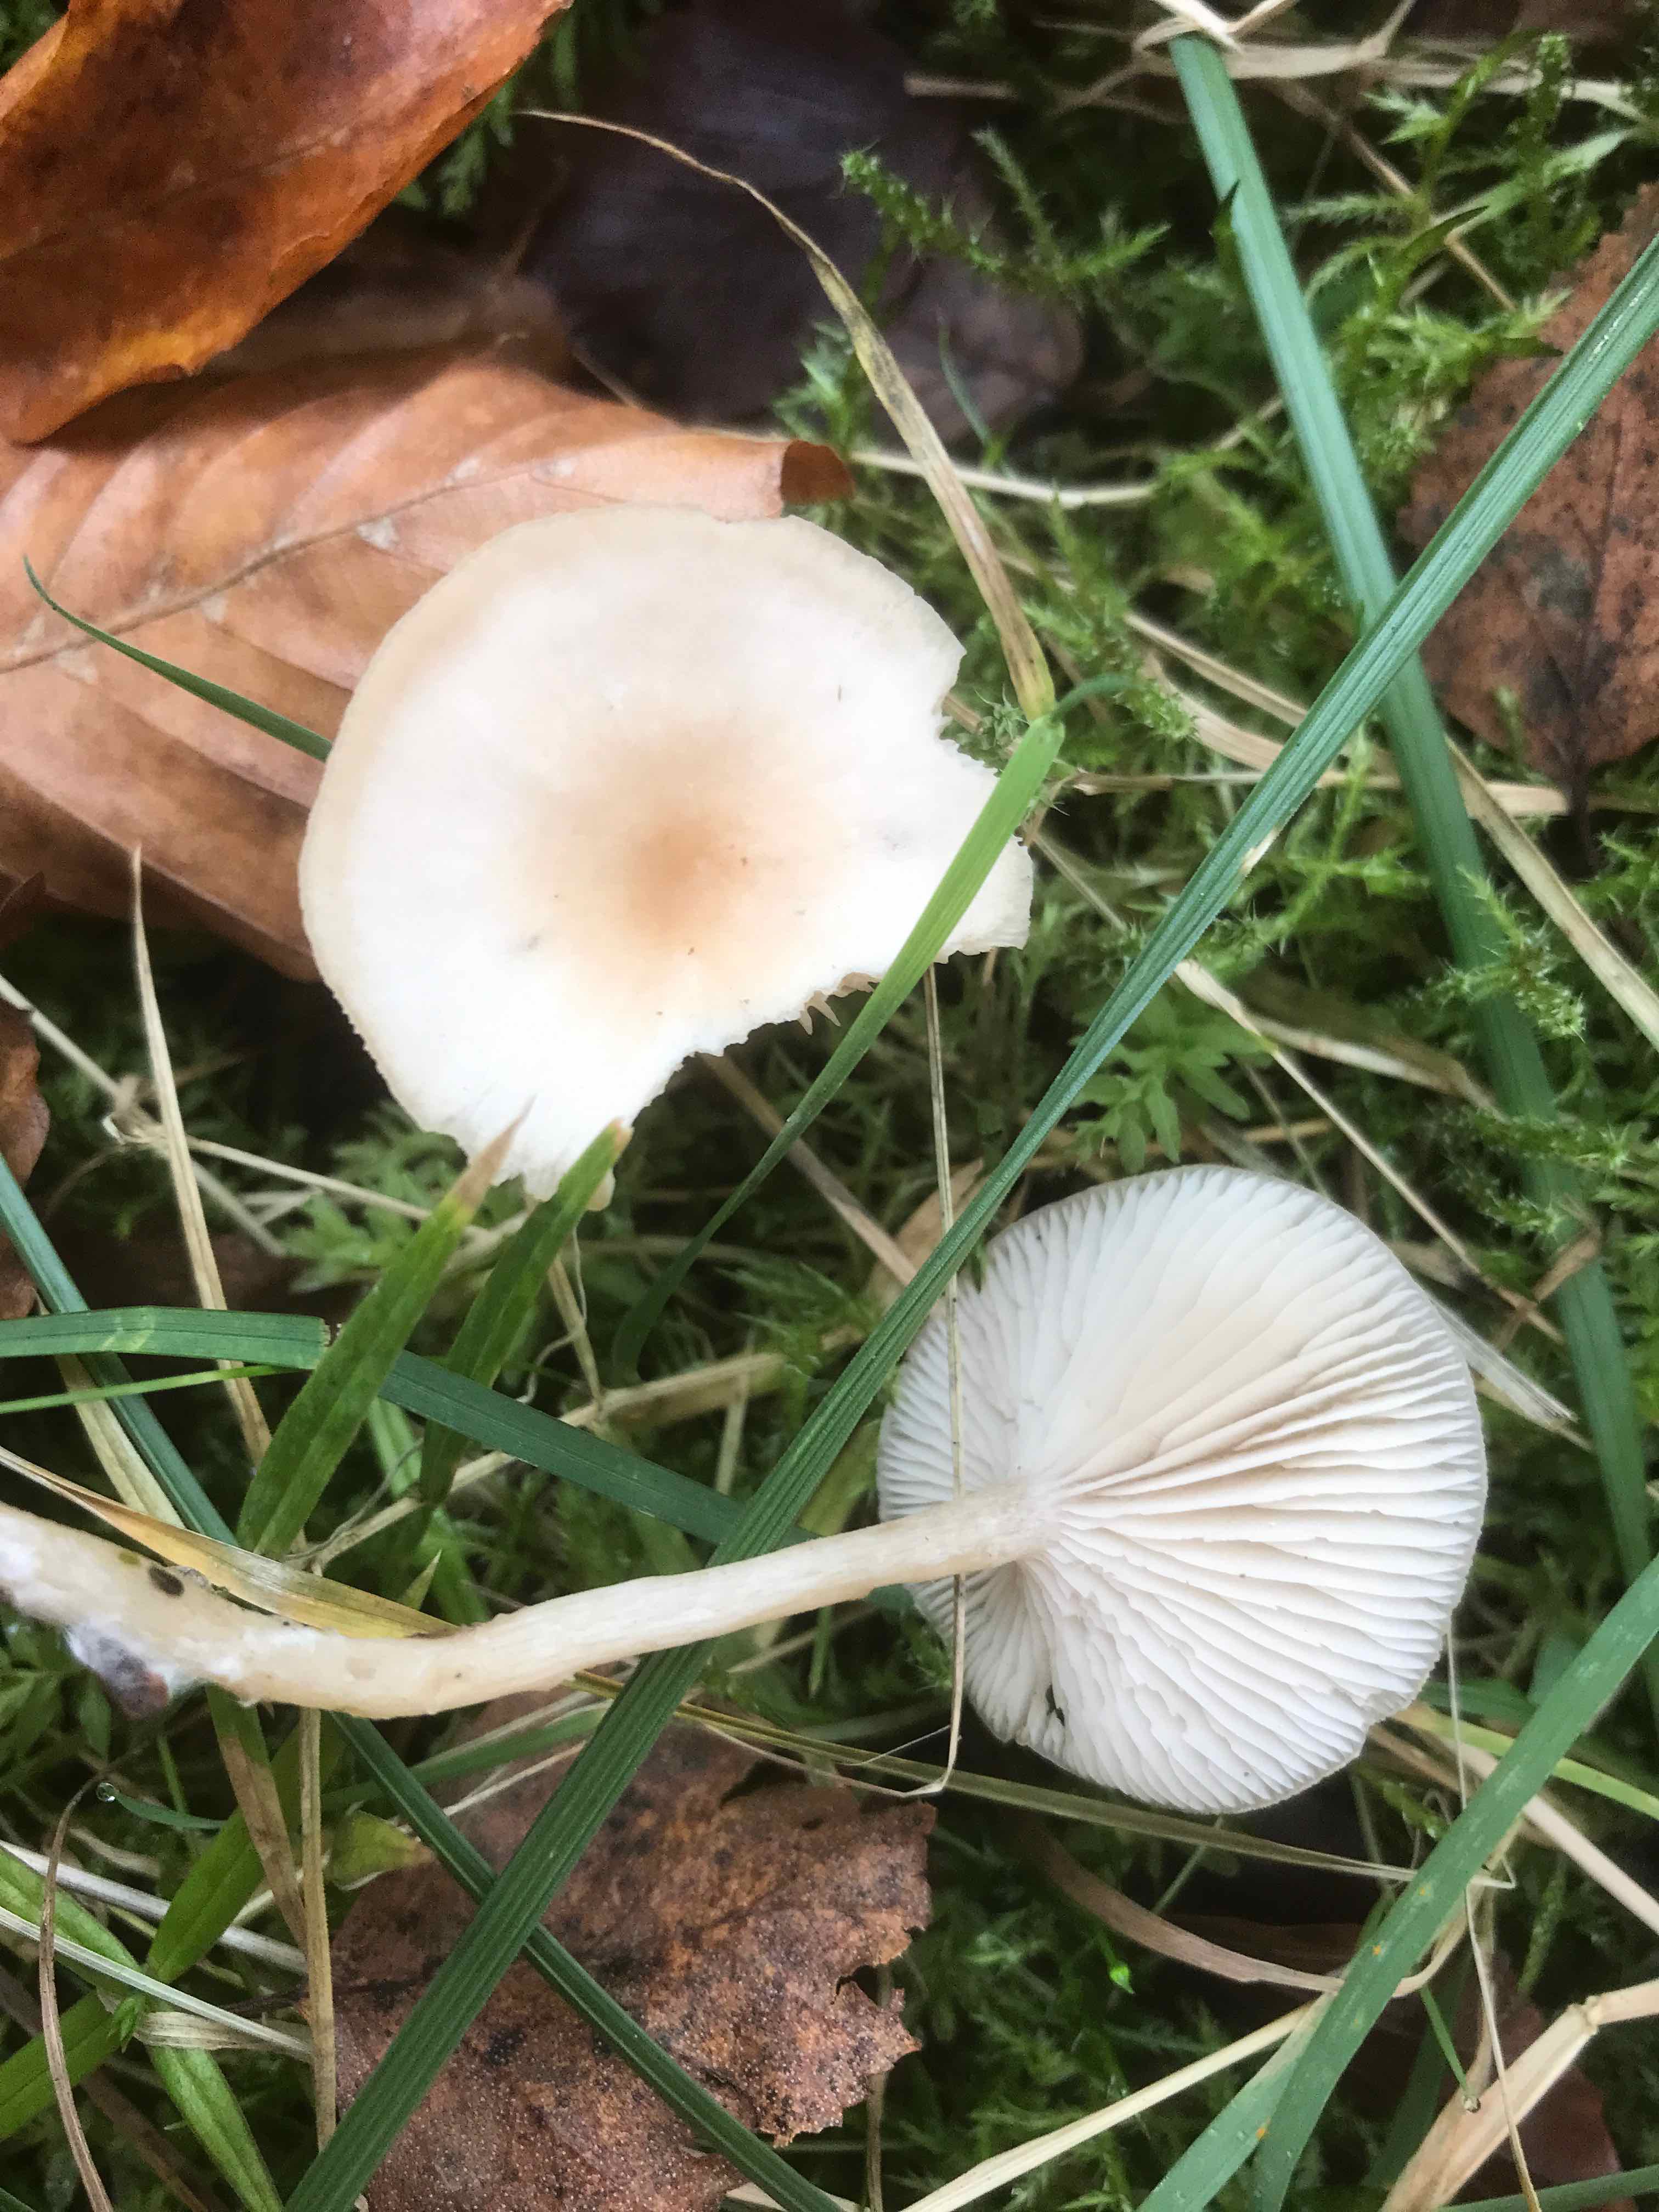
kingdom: Fungi
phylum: Basidiomycota
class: Agaricomycetes
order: Agaricales
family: Tricholomataceae
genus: Clitocybe
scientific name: Clitocybe fragrans
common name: vellugtende tragthat
